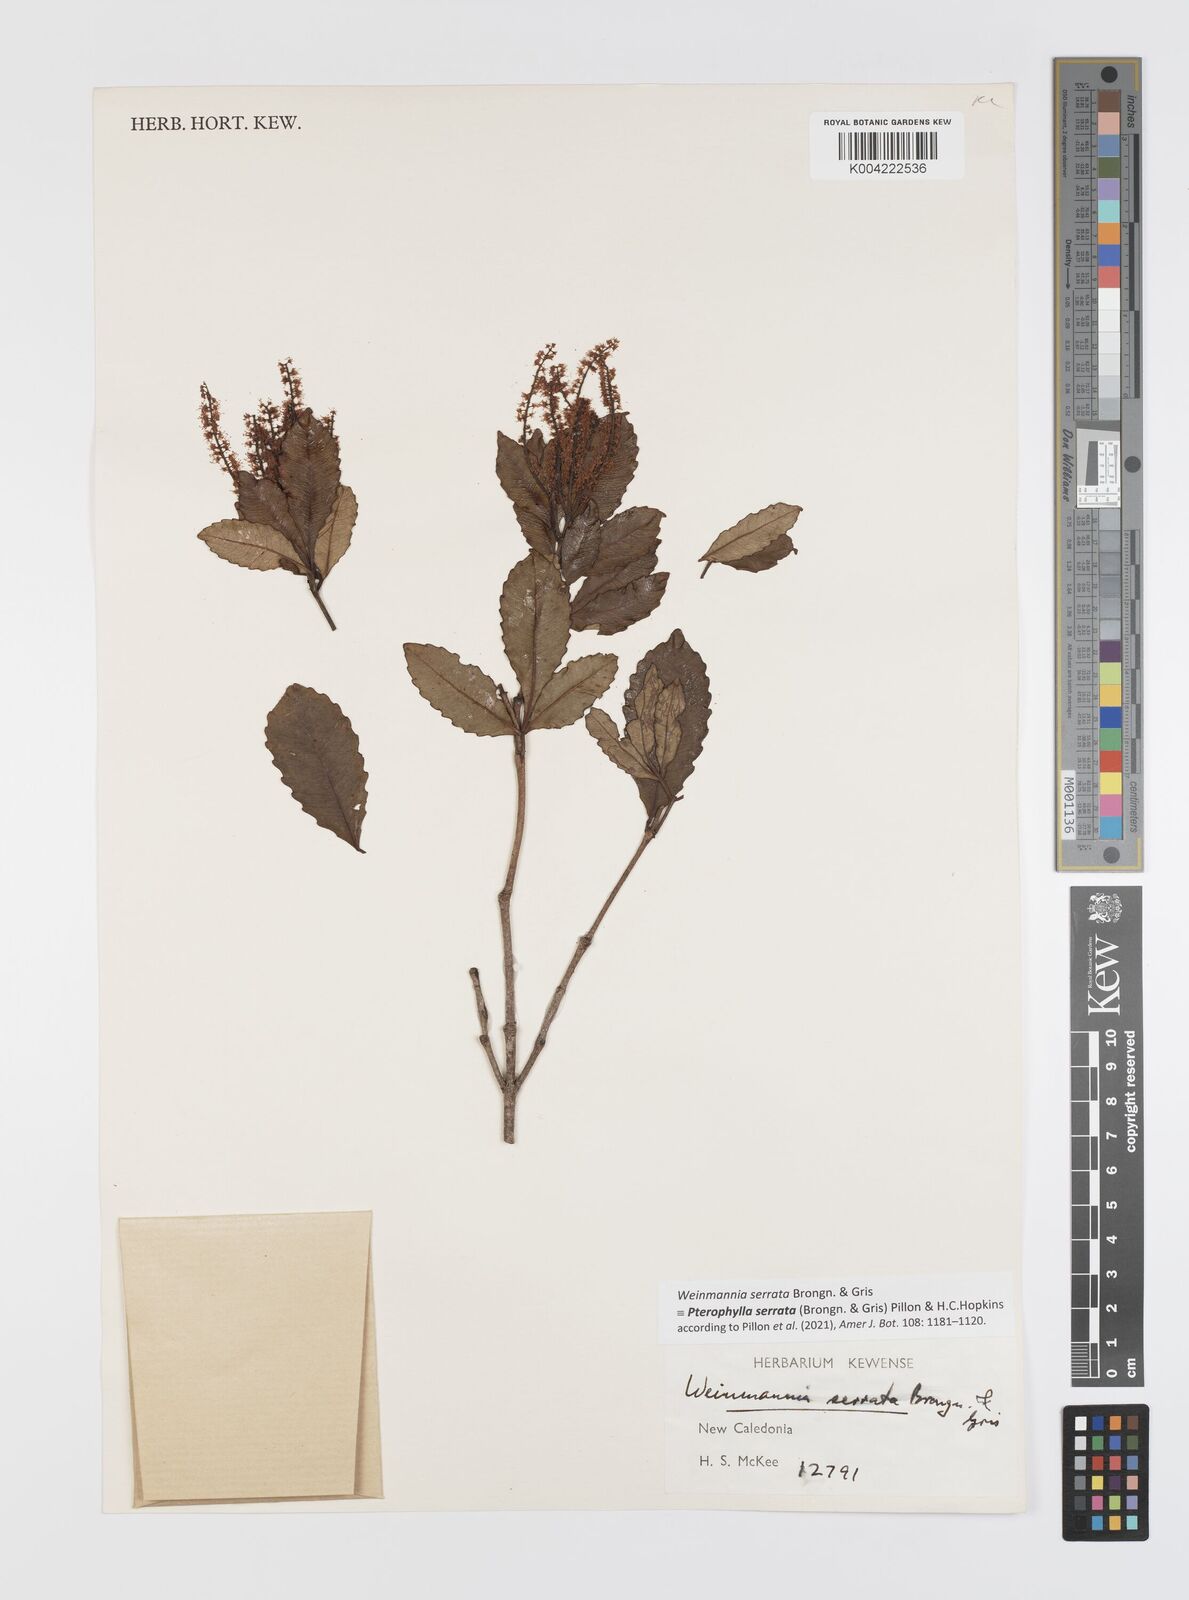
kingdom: Plantae
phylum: Tracheophyta
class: Magnoliopsida
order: Oxalidales
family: Cunoniaceae
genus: Pterophylla
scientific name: Pterophylla serrata
